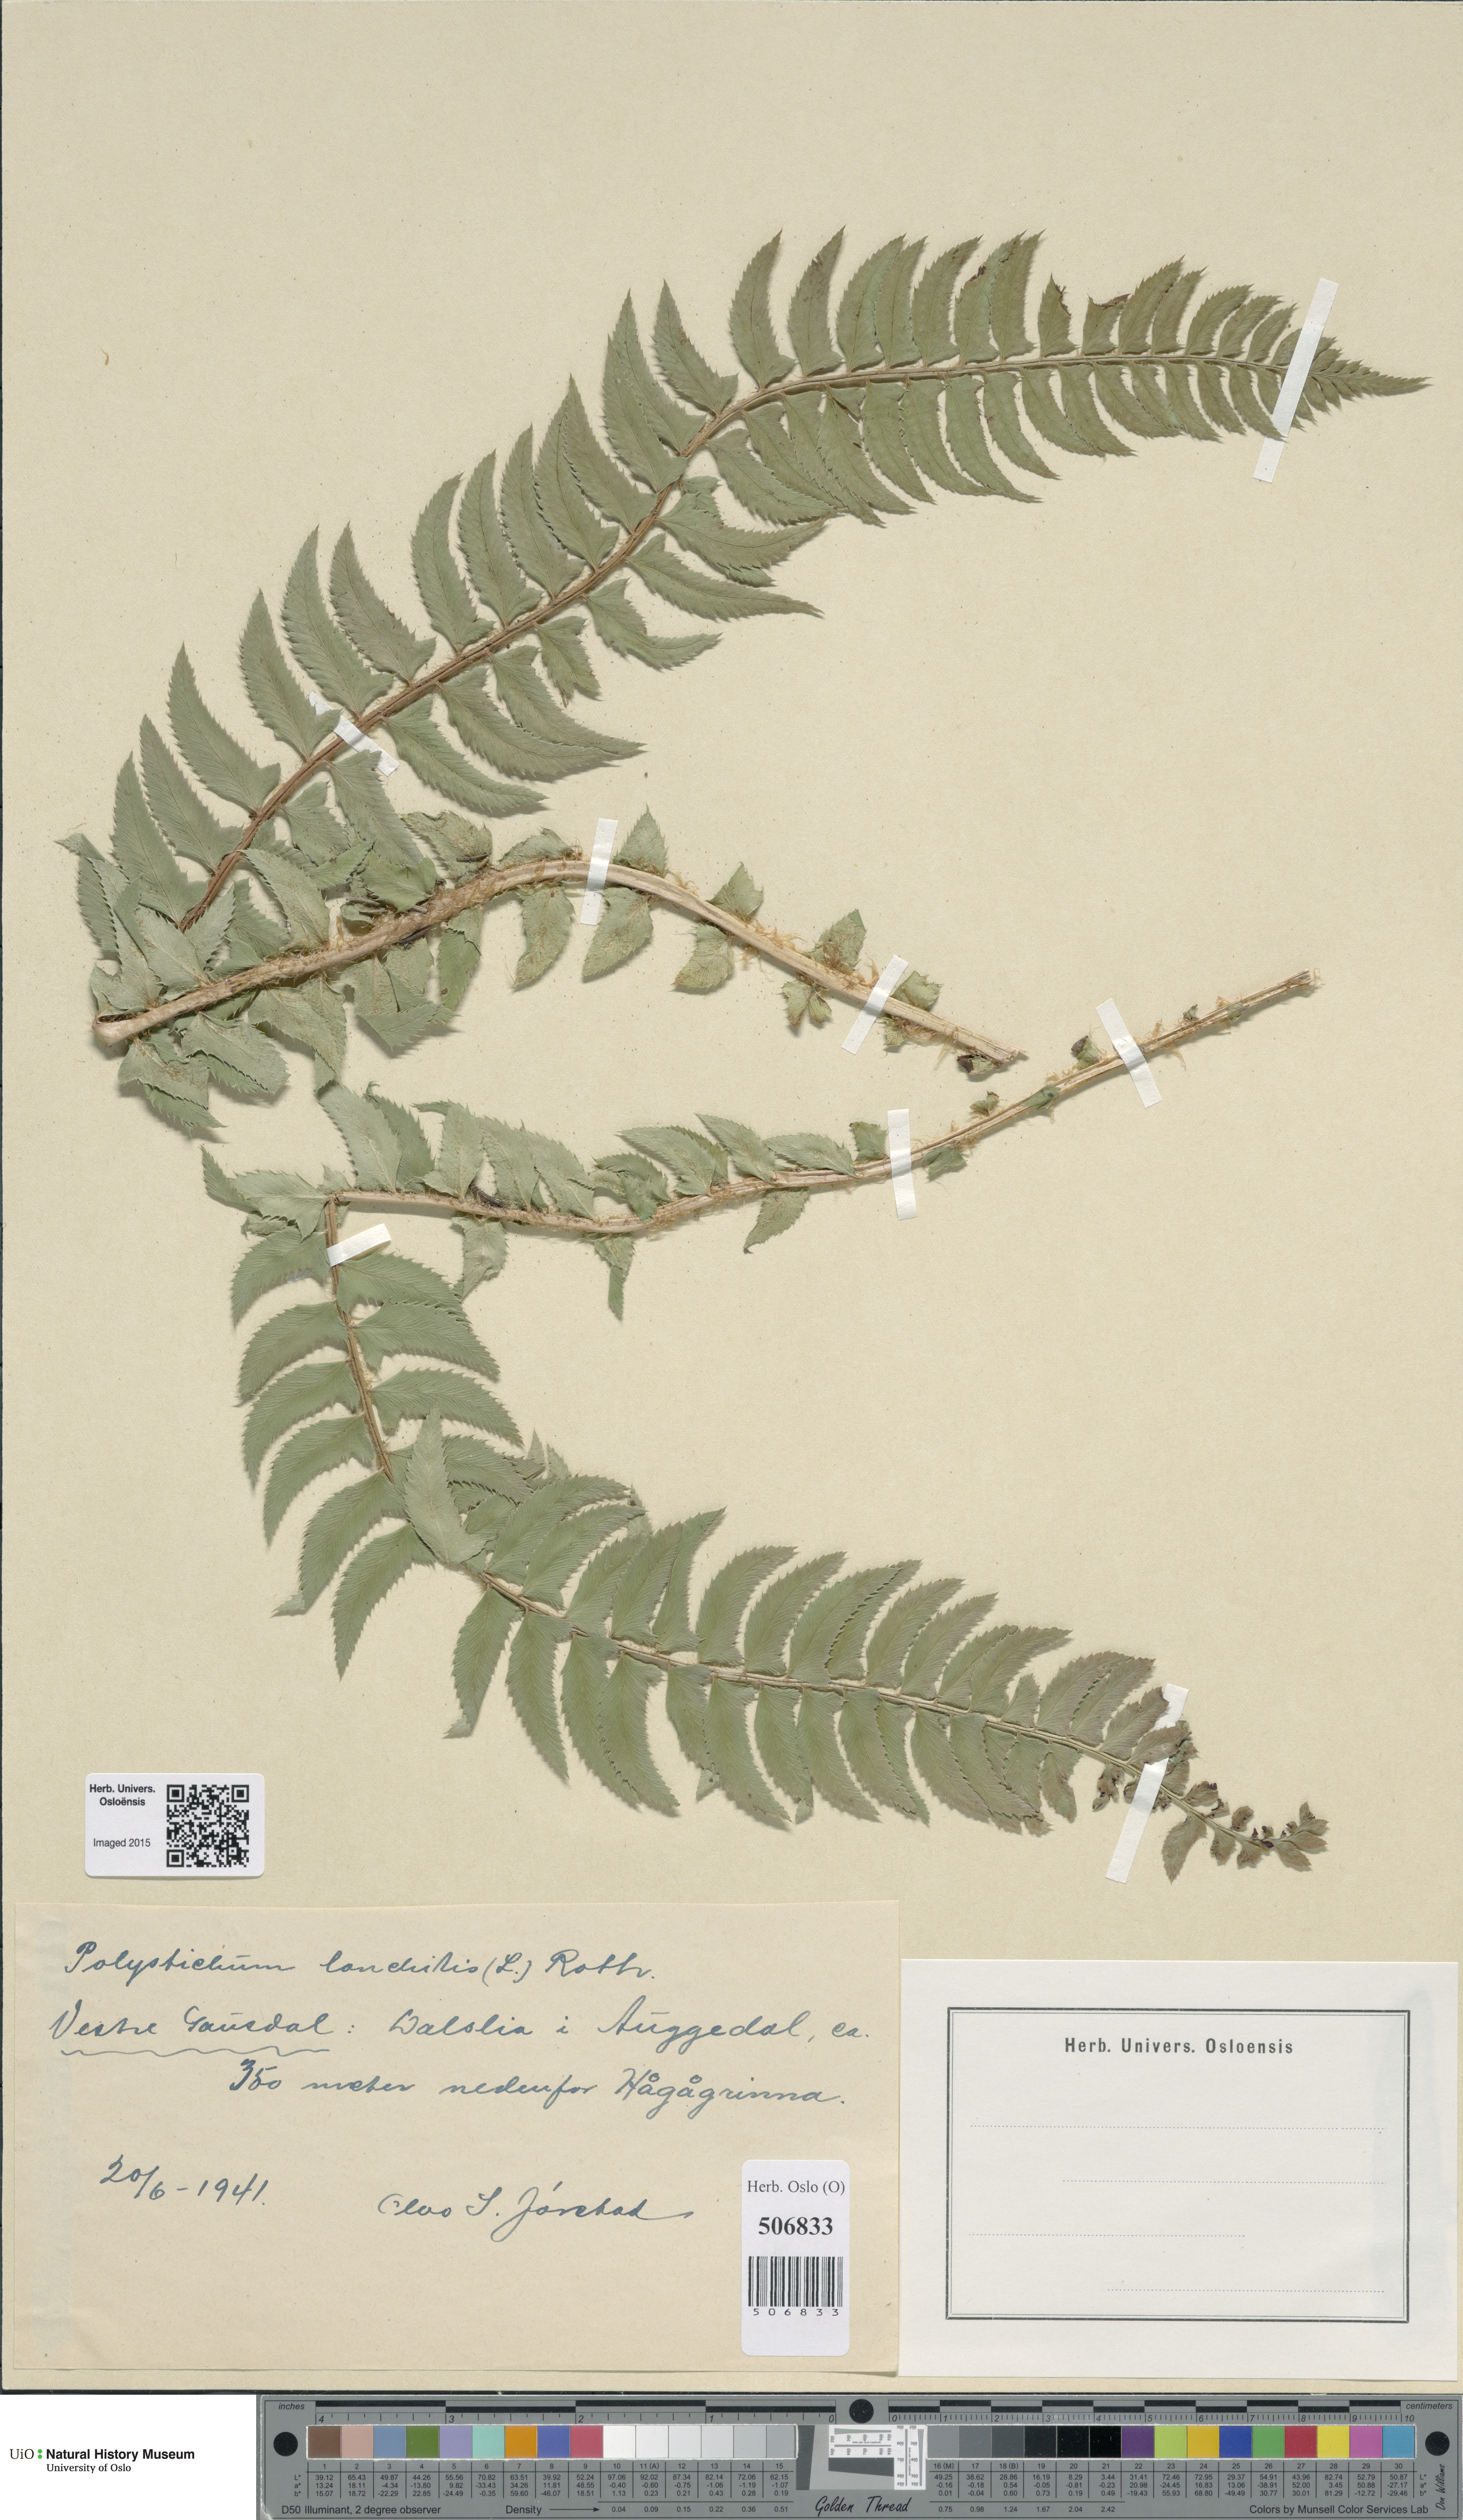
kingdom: Plantae
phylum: Tracheophyta
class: Polypodiopsida
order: Polypodiales
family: Dryopteridaceae
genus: Polystichum
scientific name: Polystichum lonchitis
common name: Holly fern
